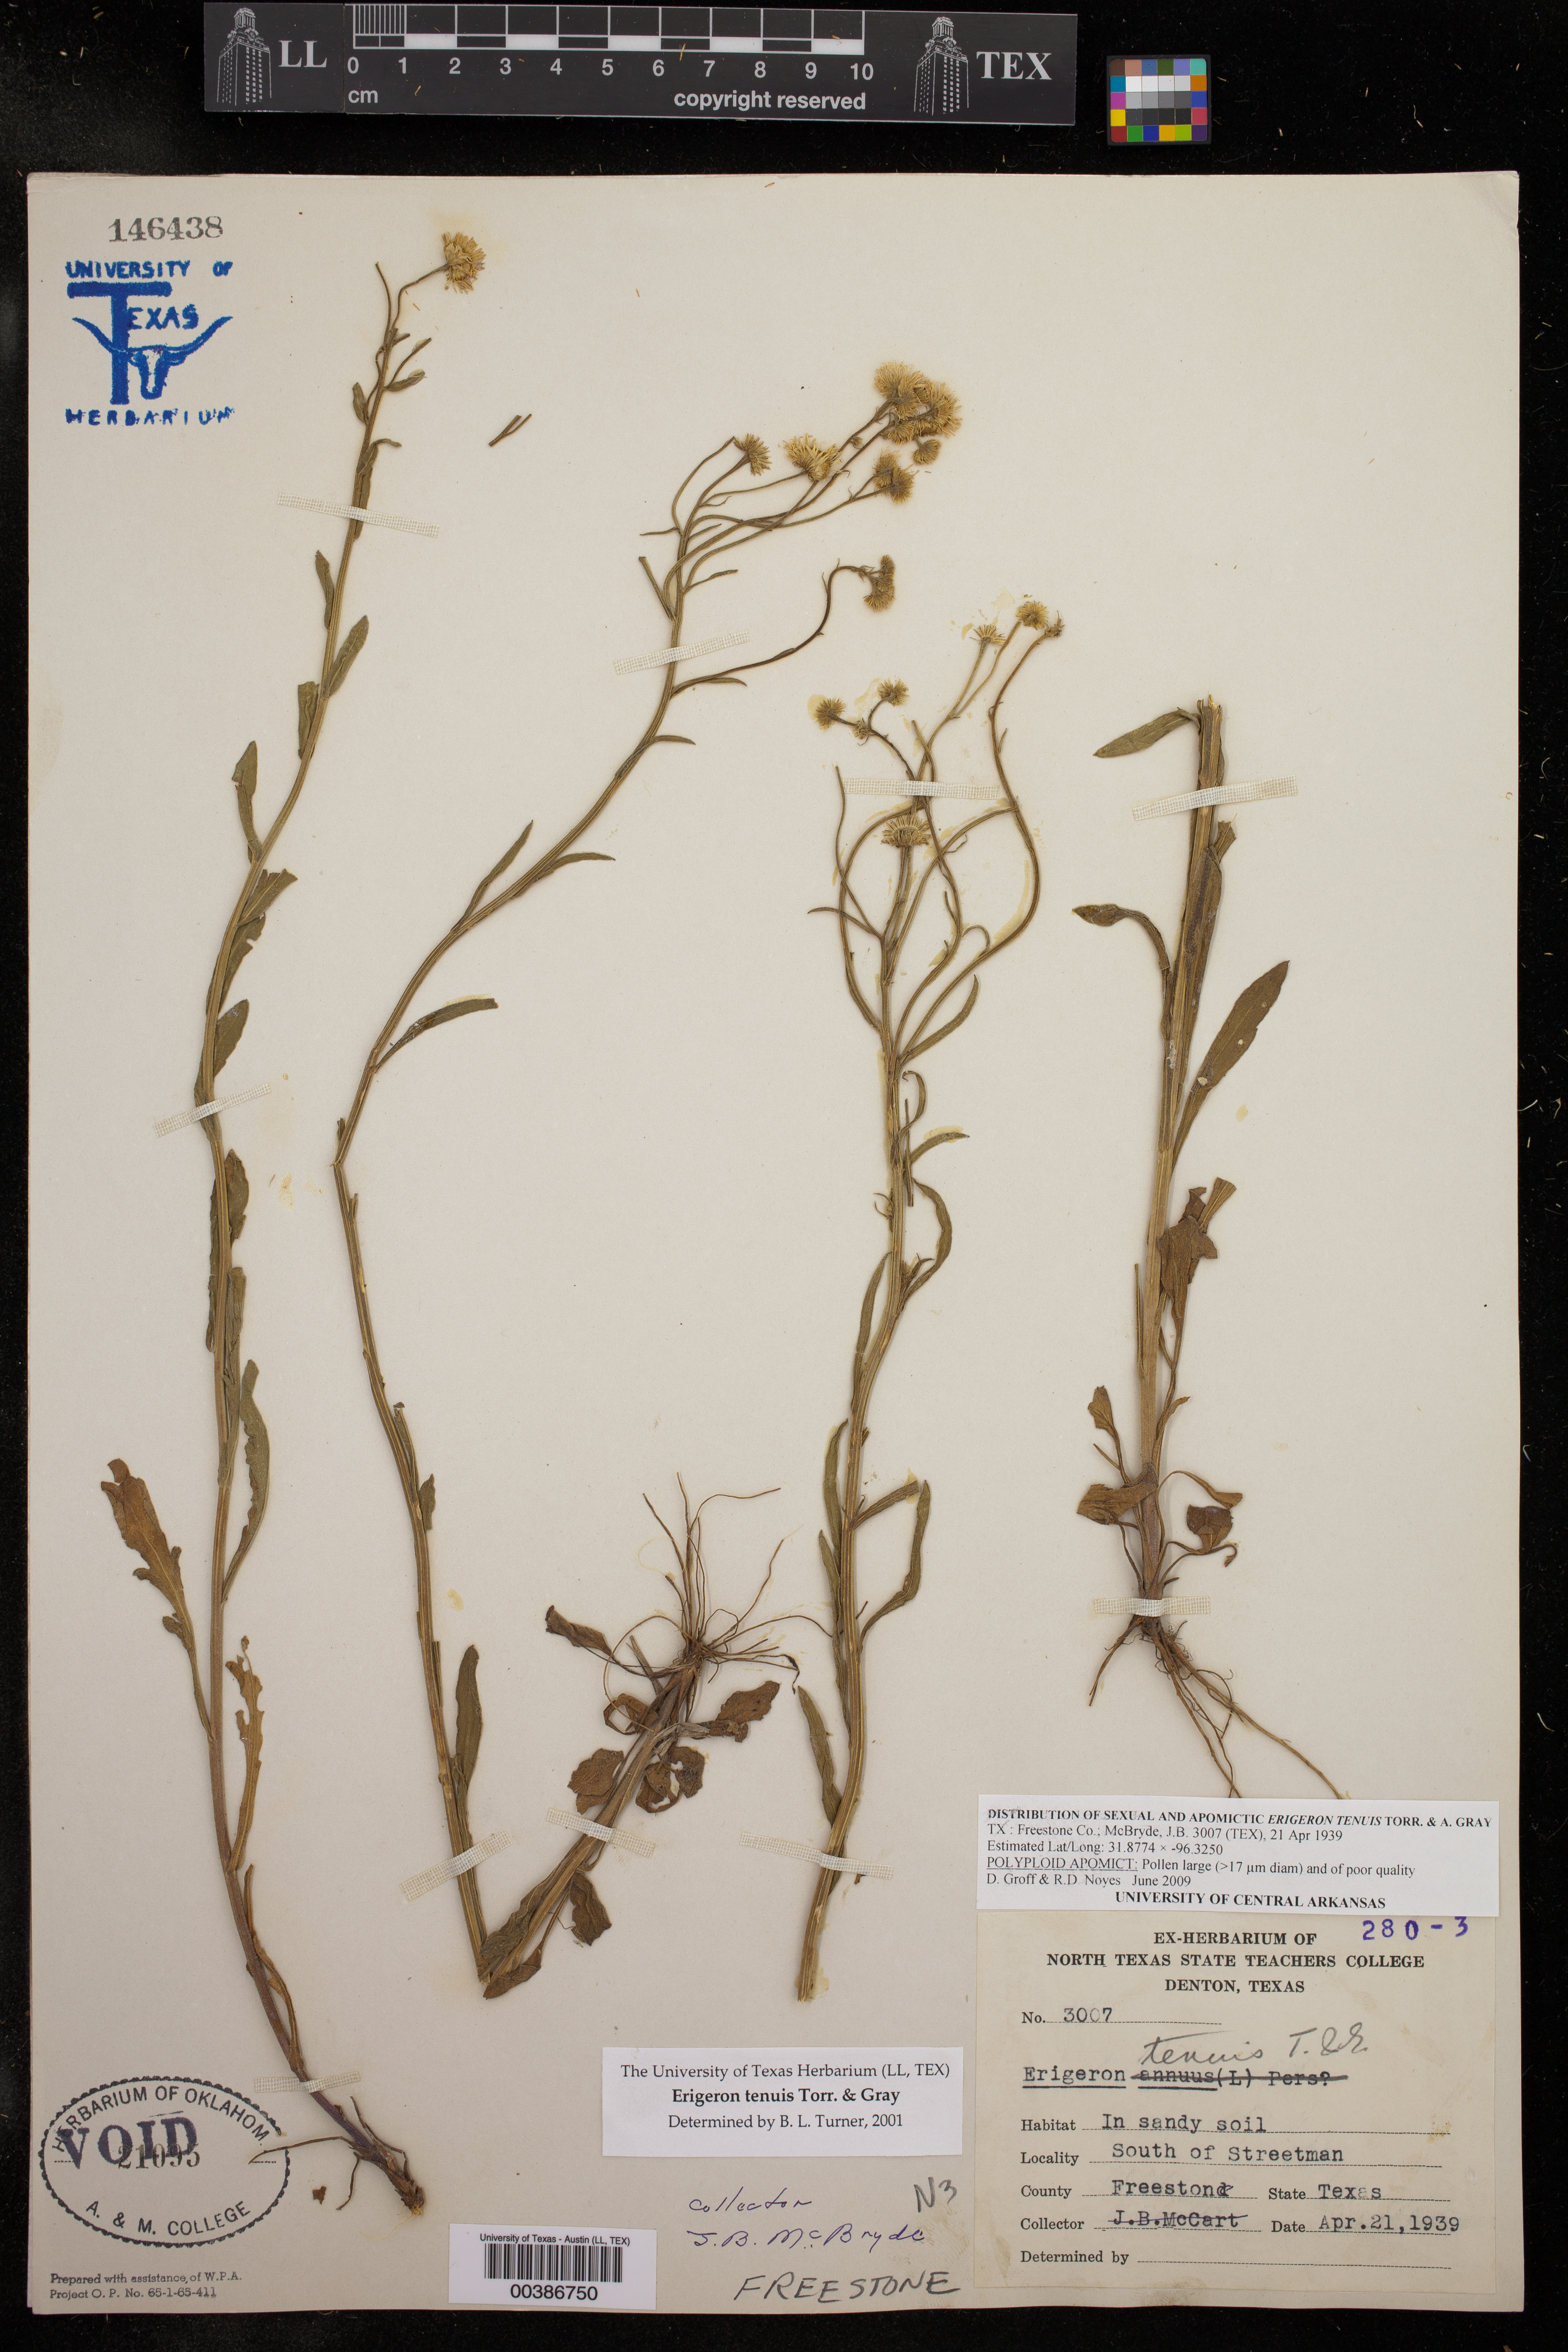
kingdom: Plantae
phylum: Tracheophyta
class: Magnoliopsida
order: Asterales
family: Asteraceae
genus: Erigeron
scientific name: Erigeron tenuis
